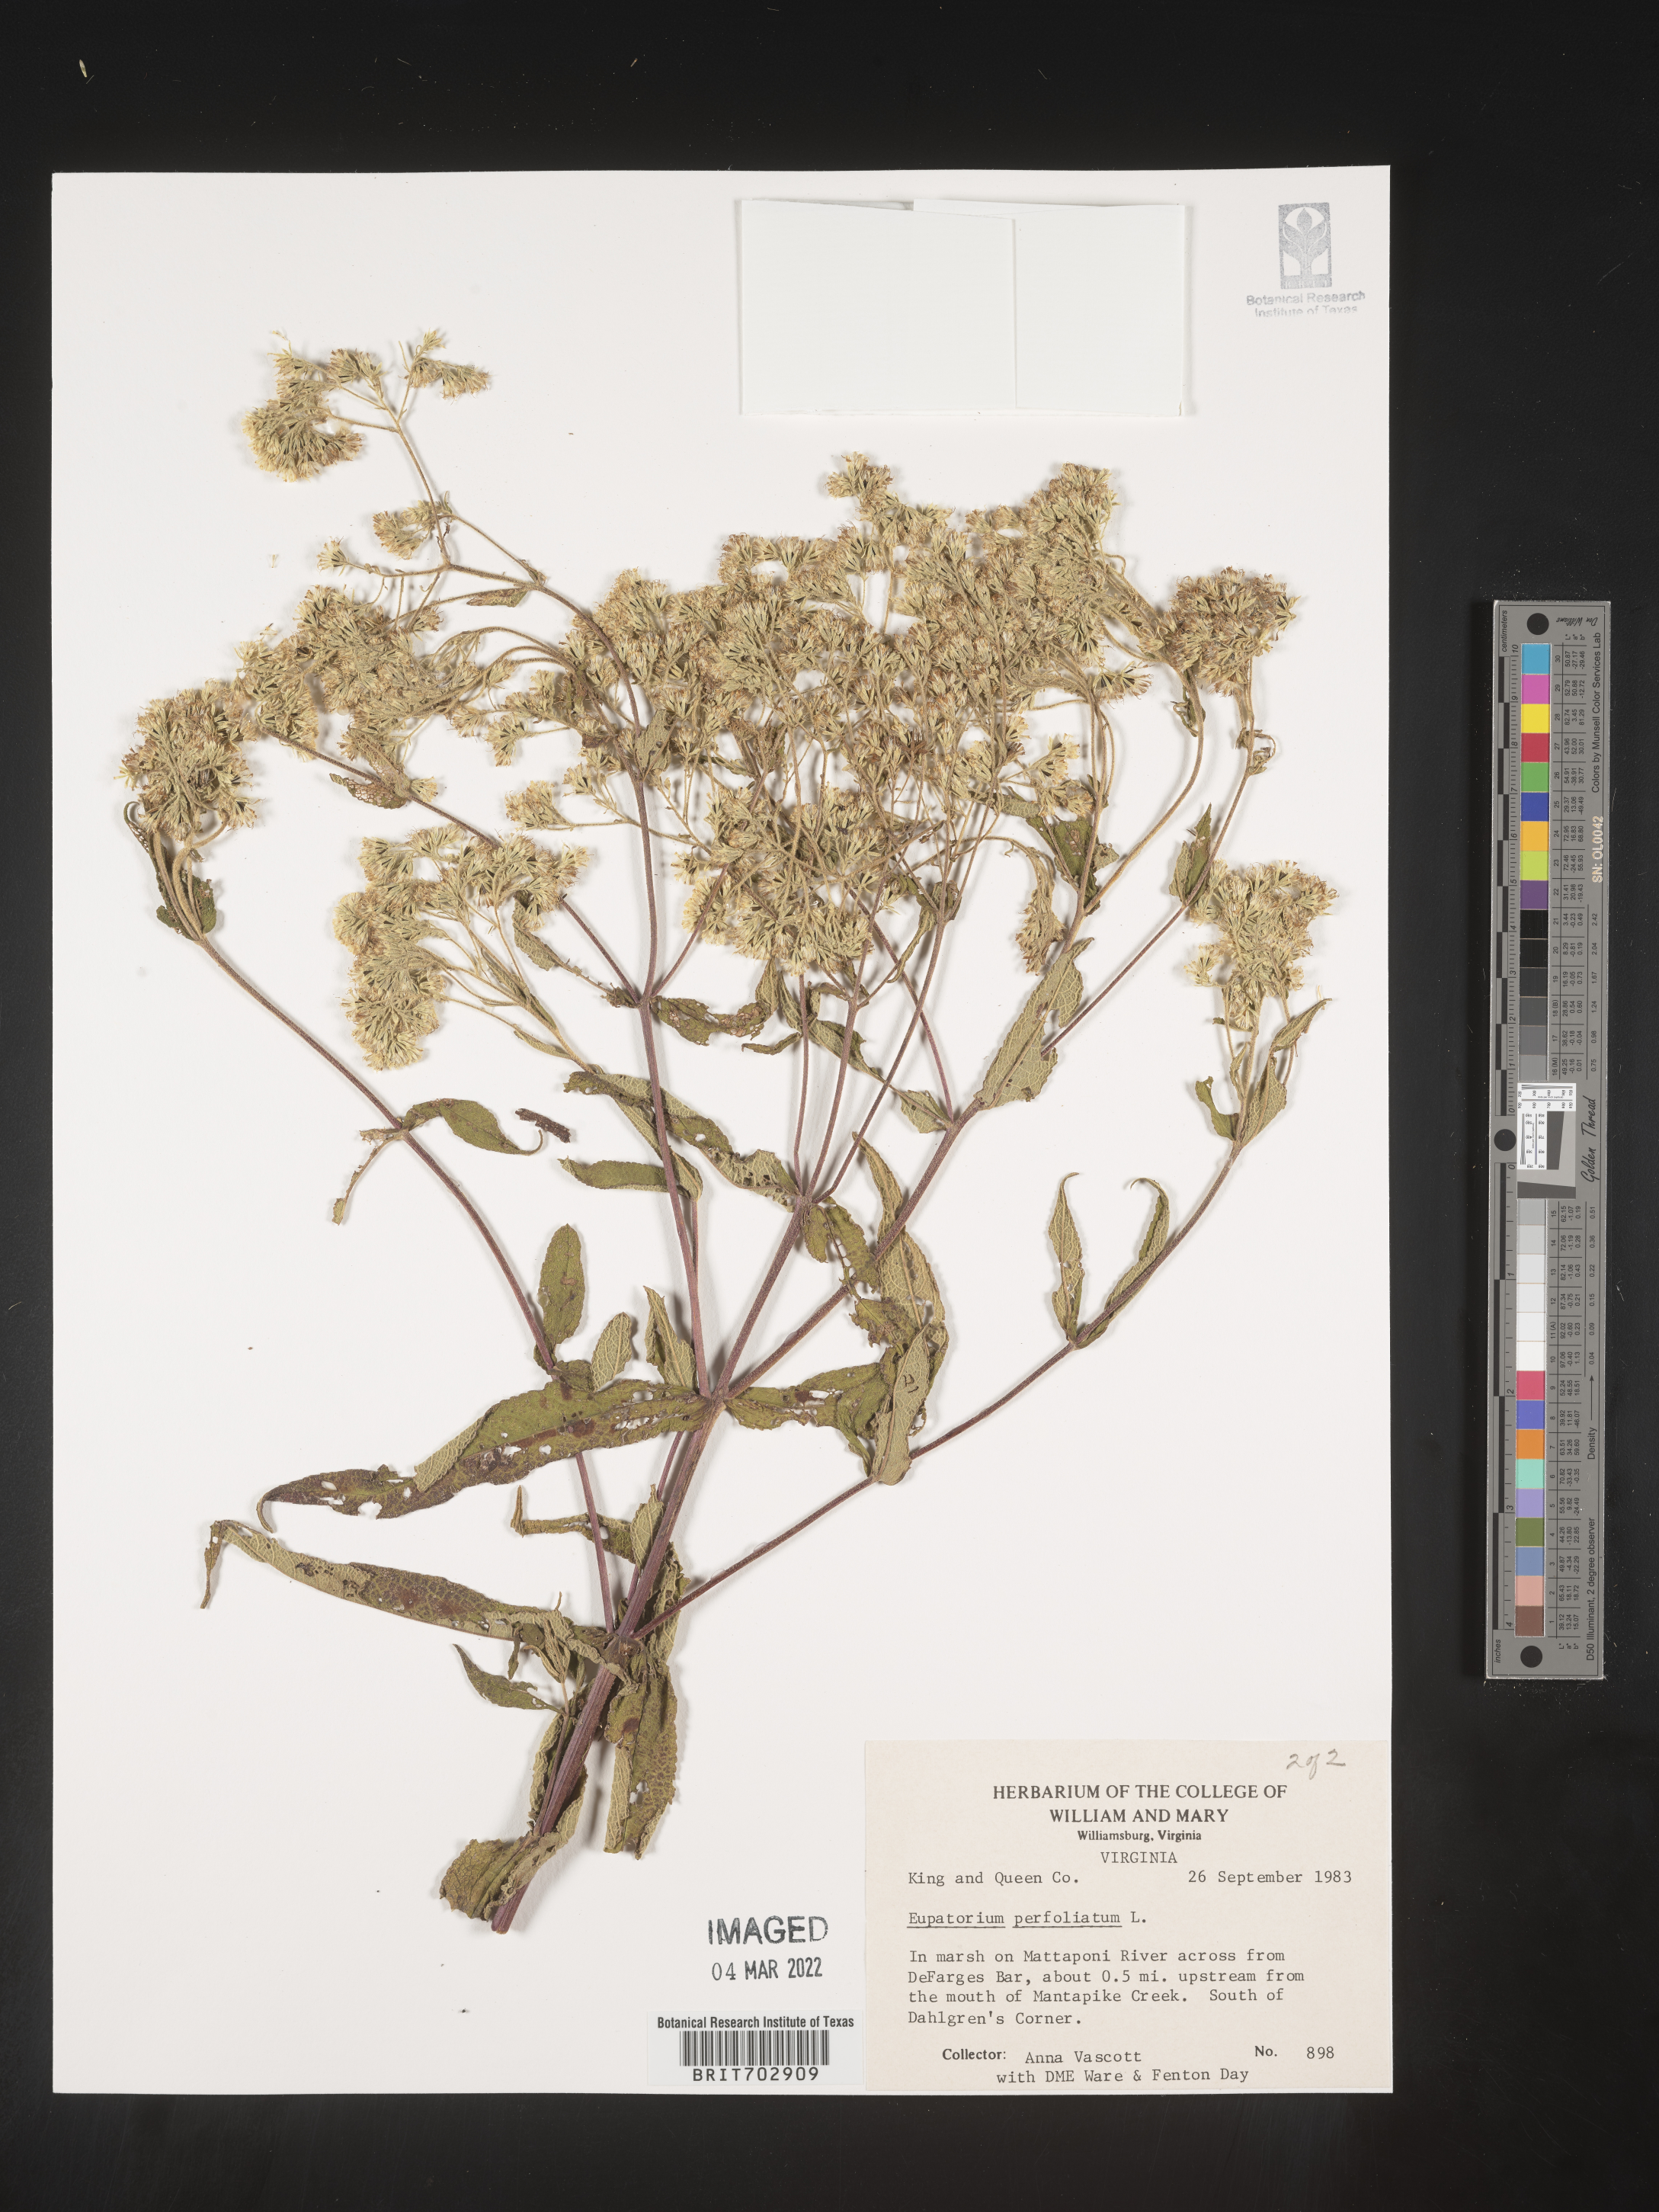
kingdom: Plantae
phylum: Tracheophyta
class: Magnoliopsida
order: Asterales
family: Asteraceae
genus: Eupatorium
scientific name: Eupatorium
